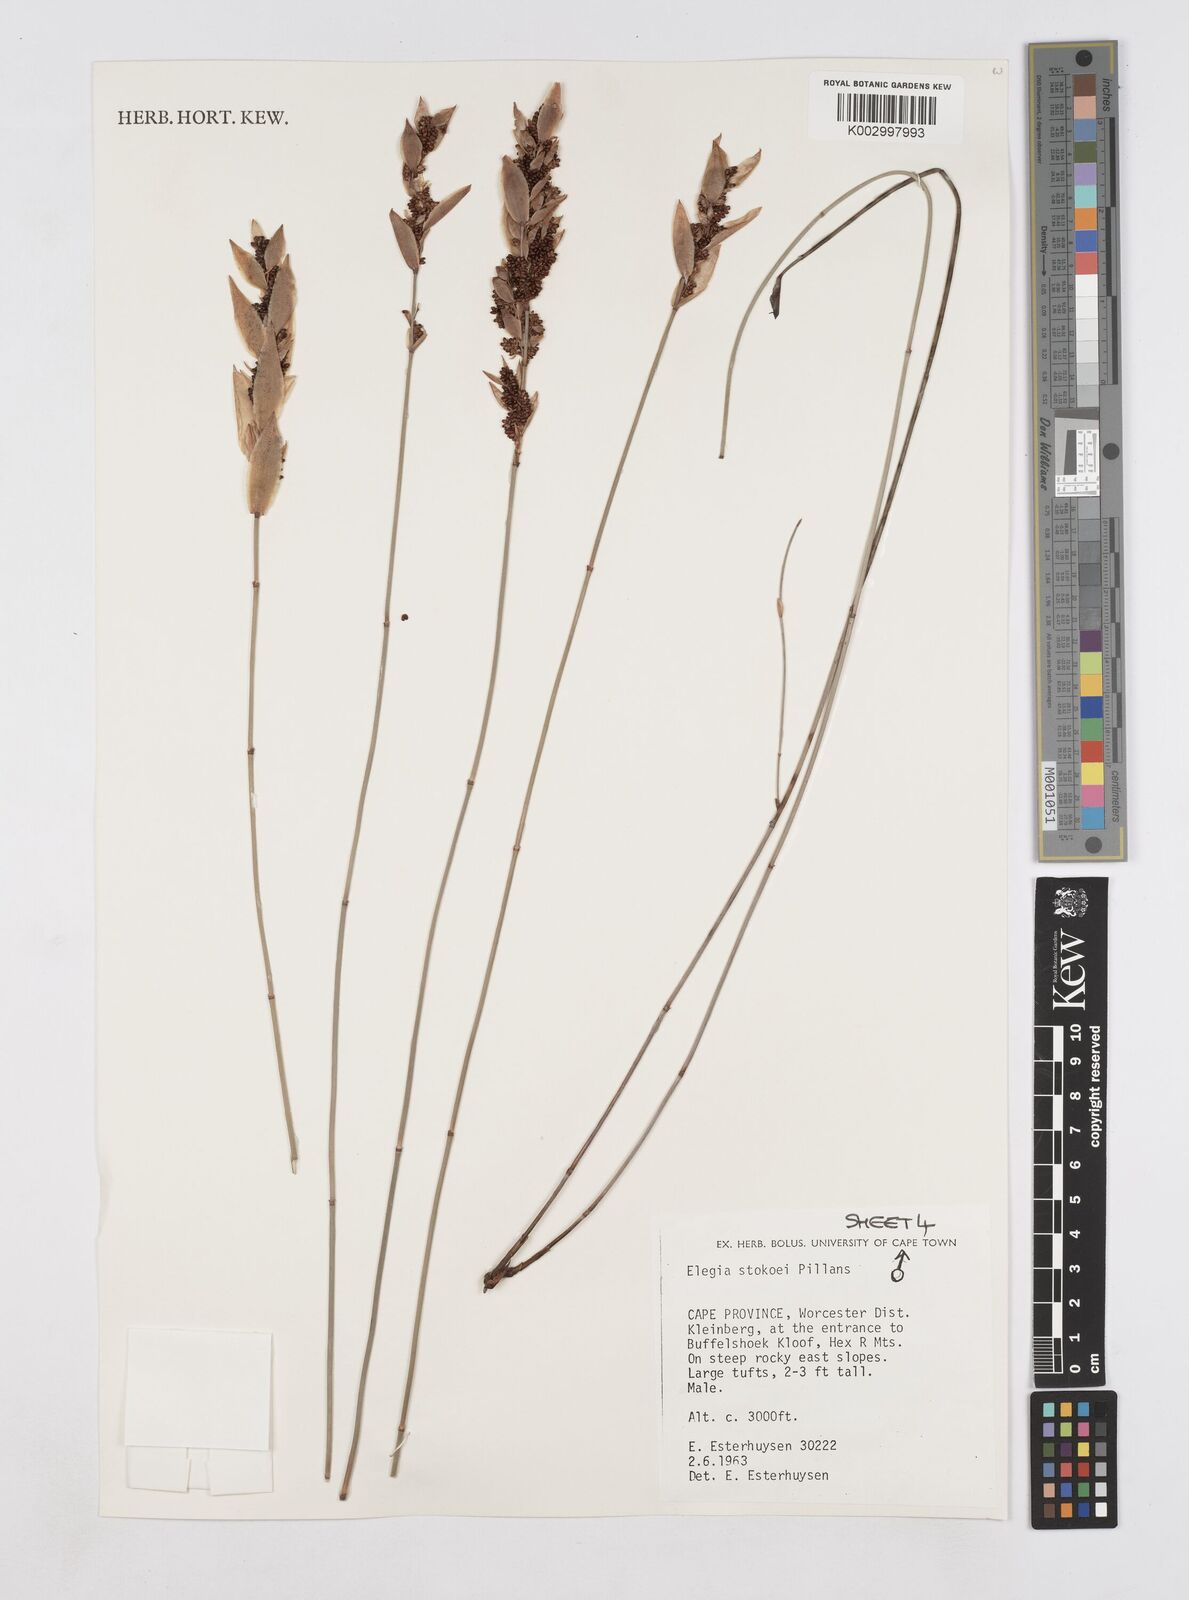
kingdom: Plantae
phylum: Tracheophyta
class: Liliopsida
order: Poales
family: Restionaceae
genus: Elegia
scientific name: Elegia stokoei
